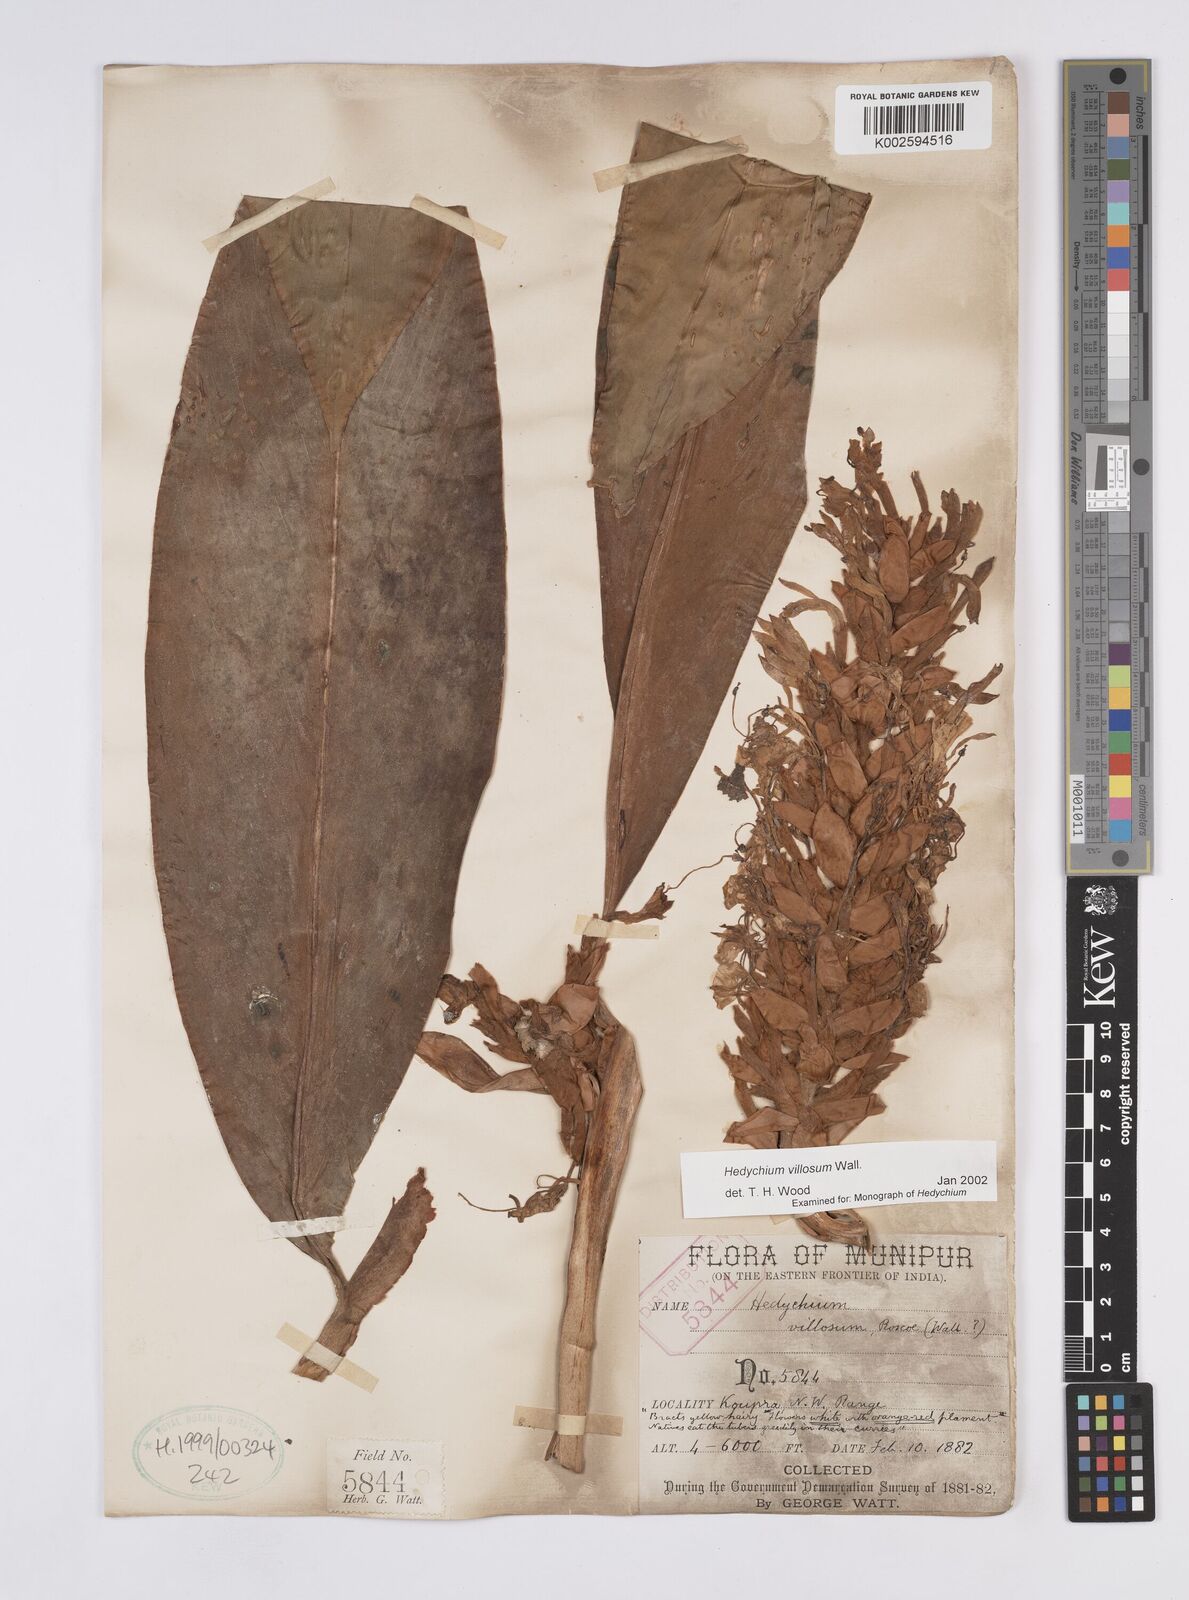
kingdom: Plantae
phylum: Tracheophyta
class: Liliopsida
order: Zingiberales
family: Zingiberaceae
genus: Hedychium
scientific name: Hedychium villosum
